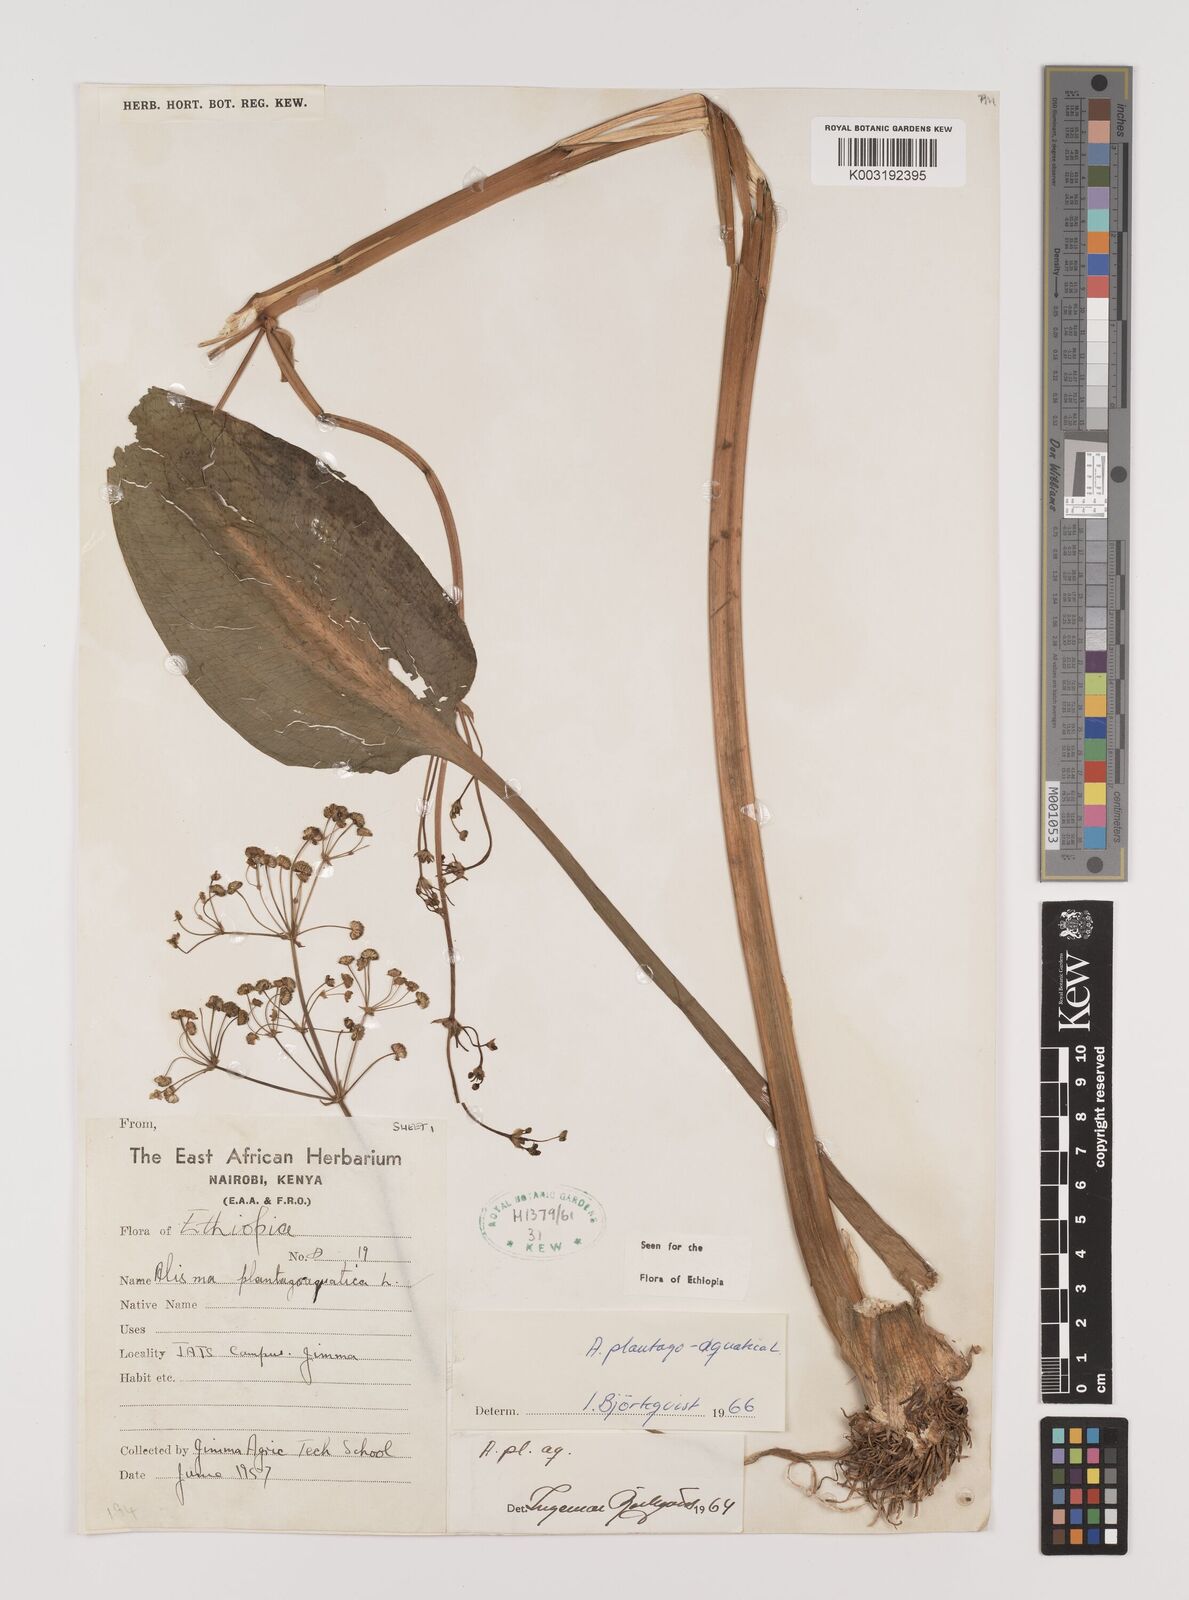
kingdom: Plantae
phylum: Tracheophyta
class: Liliopsida
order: Alismatales
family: Alismataceae
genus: Alisma
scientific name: Alisma plantago-aquatica
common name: Water-plantain
